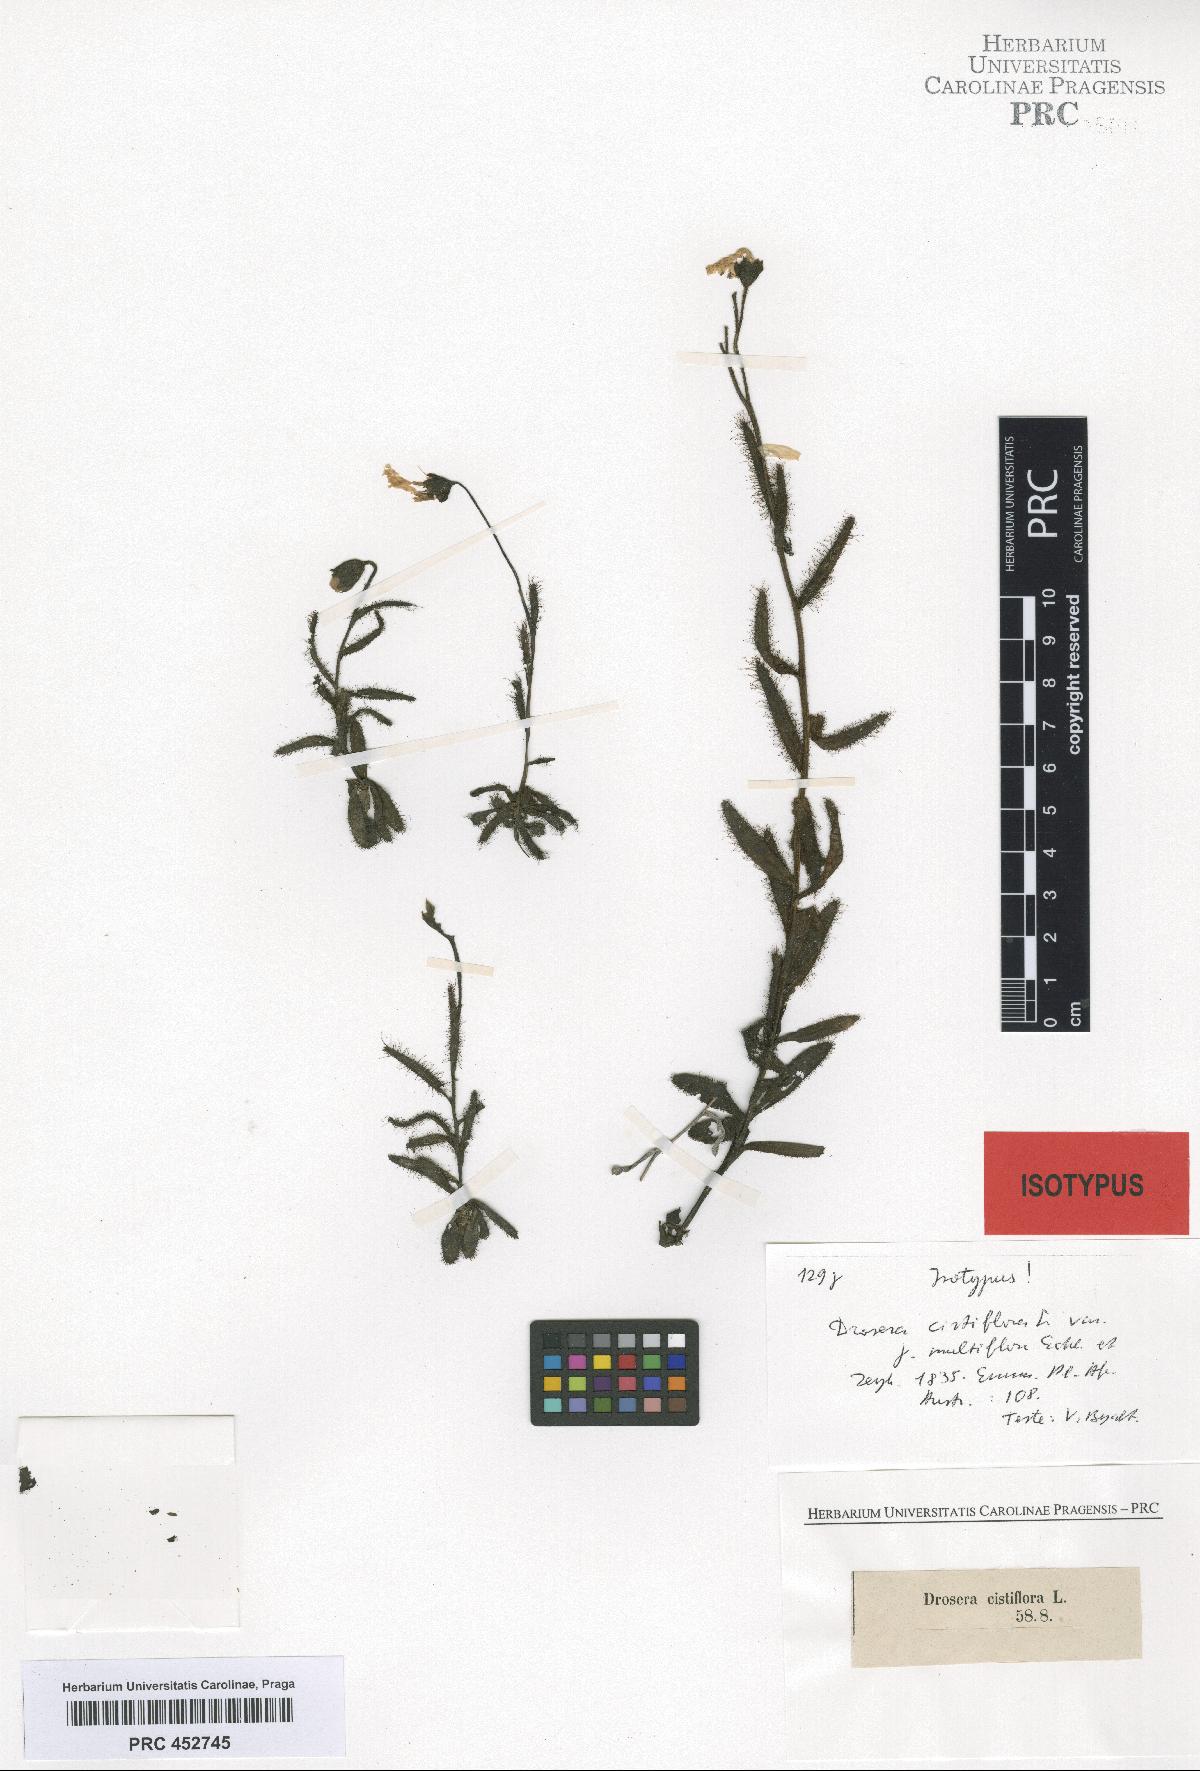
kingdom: Plantae
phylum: Tracheophyta
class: Magnoliopsida
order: Caryophyllales
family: Droseraceae
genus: Drosera
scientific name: Drosera cistiflora
